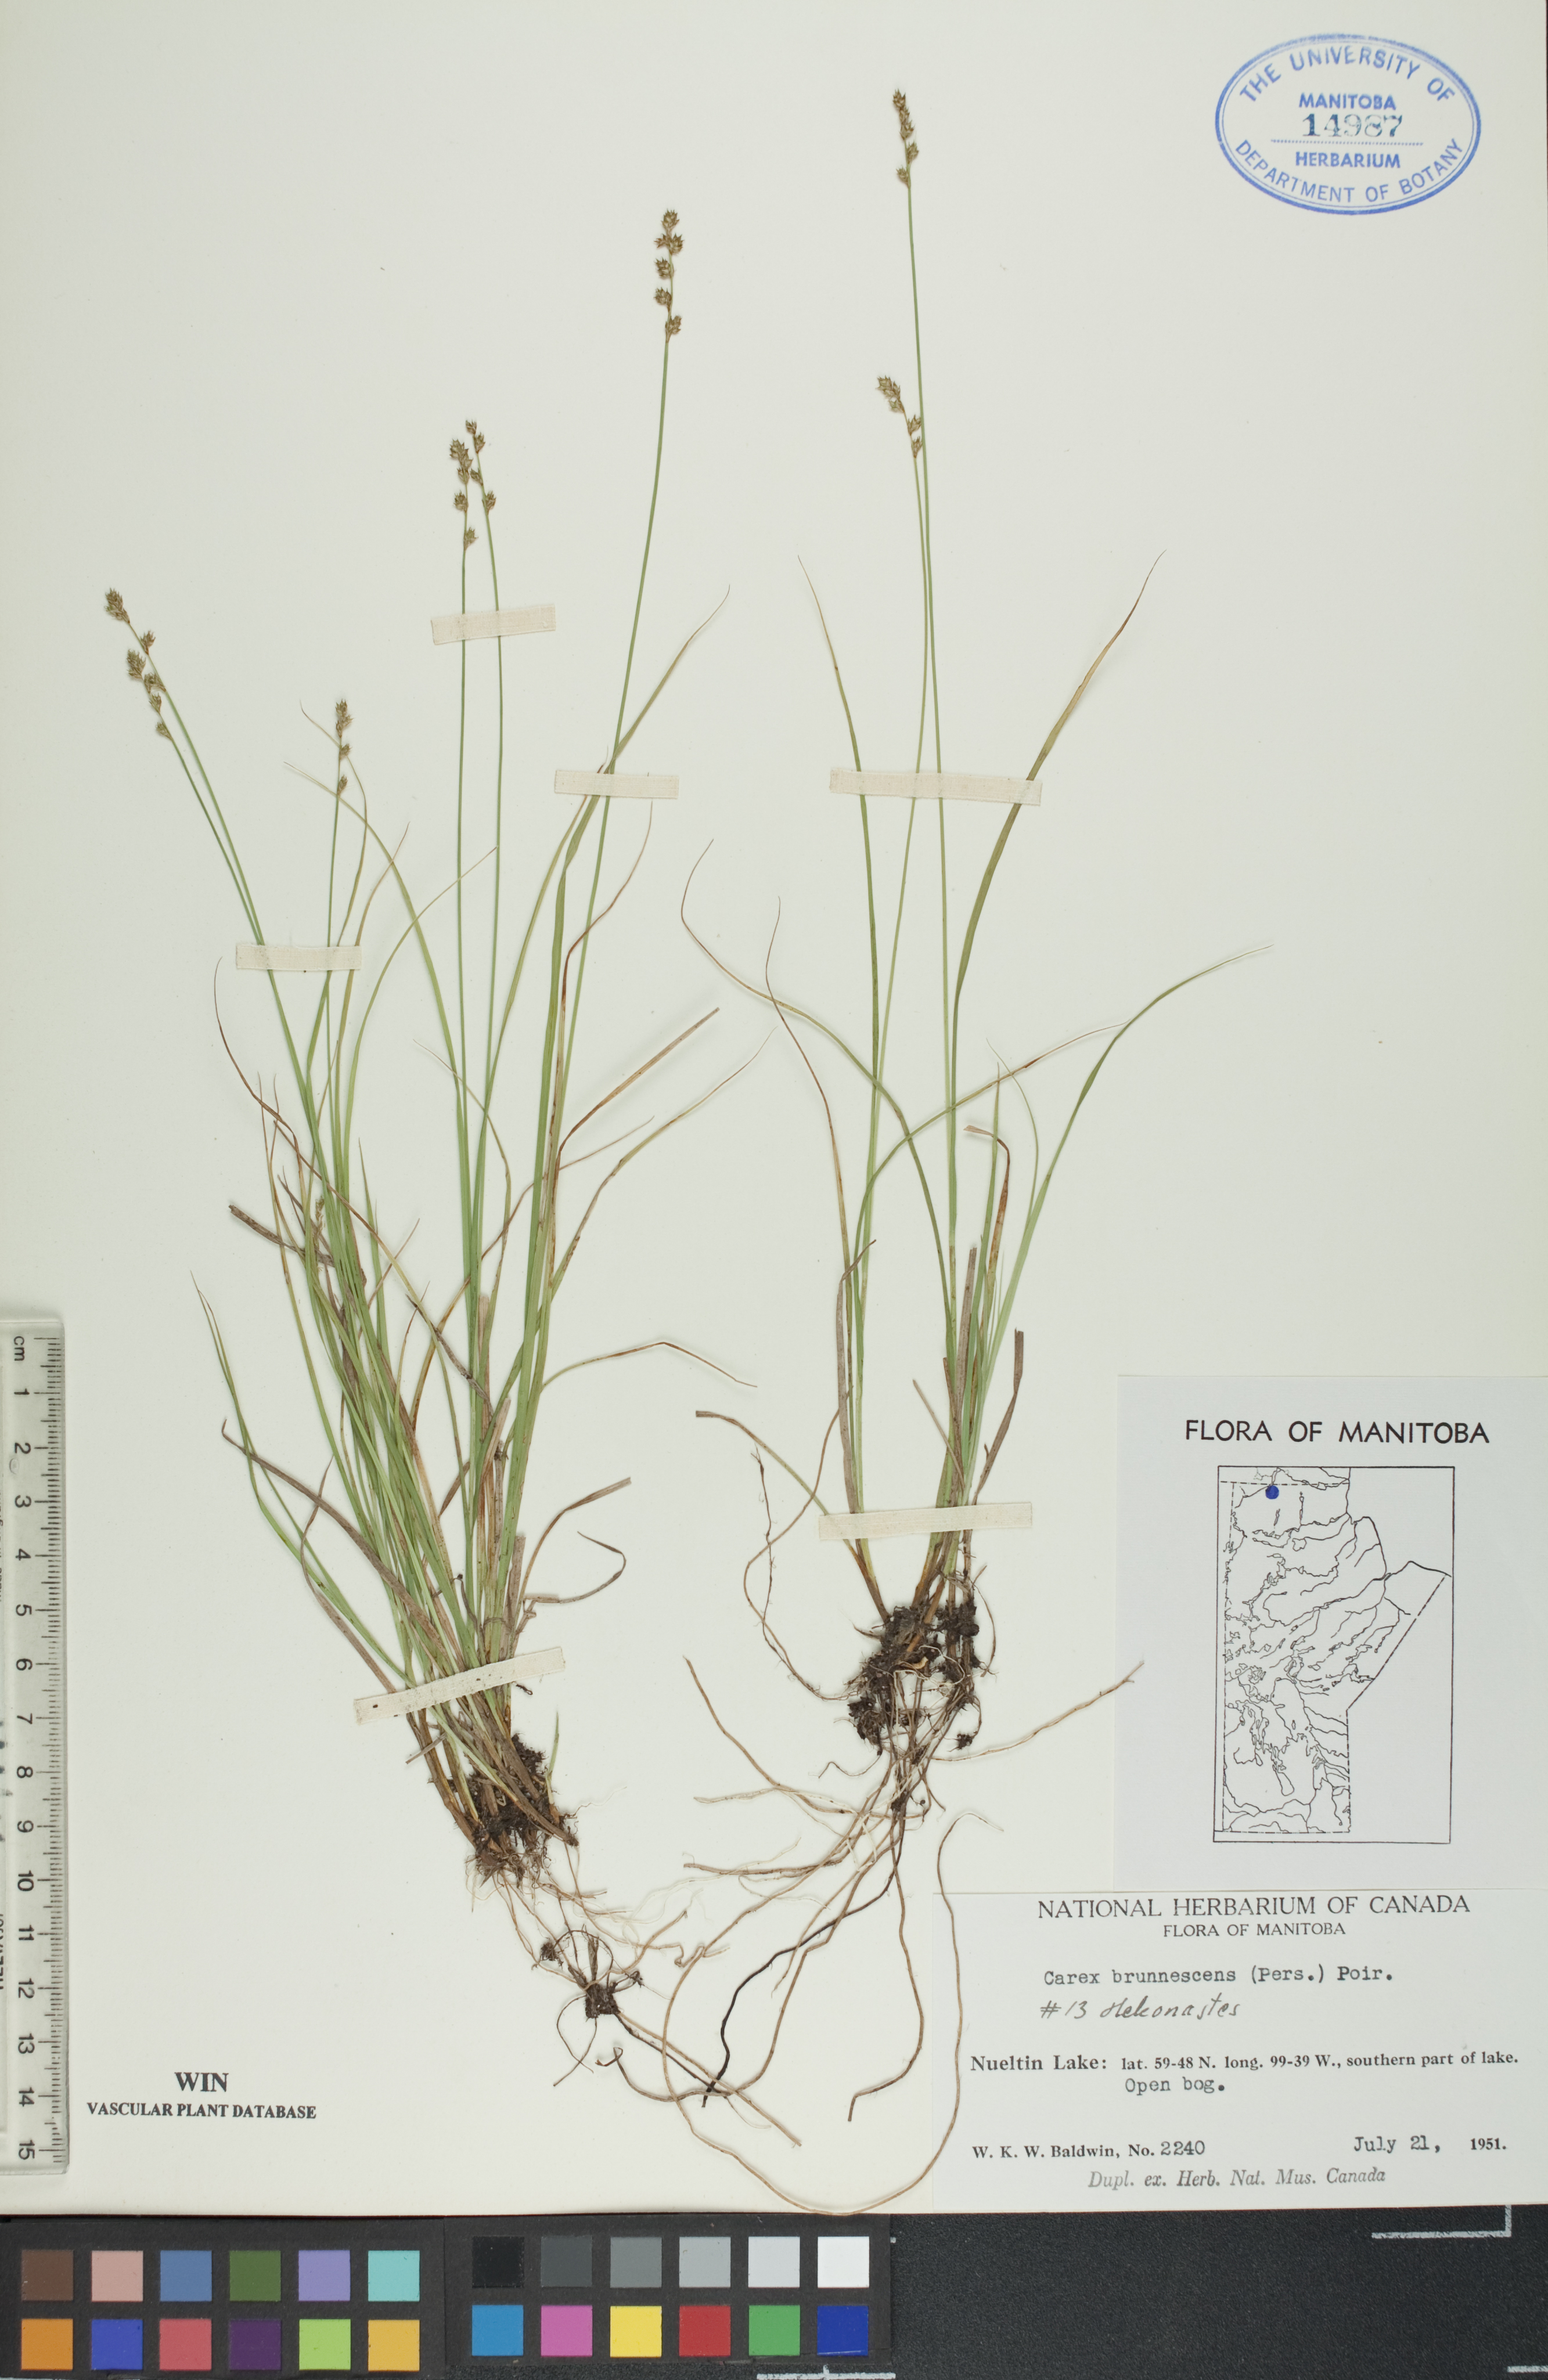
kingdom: Plantae
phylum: Tracheophyta
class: Liliopsida
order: Poales
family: Cyperaceae
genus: Carex
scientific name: Carex brunnescens
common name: Brown sedge
